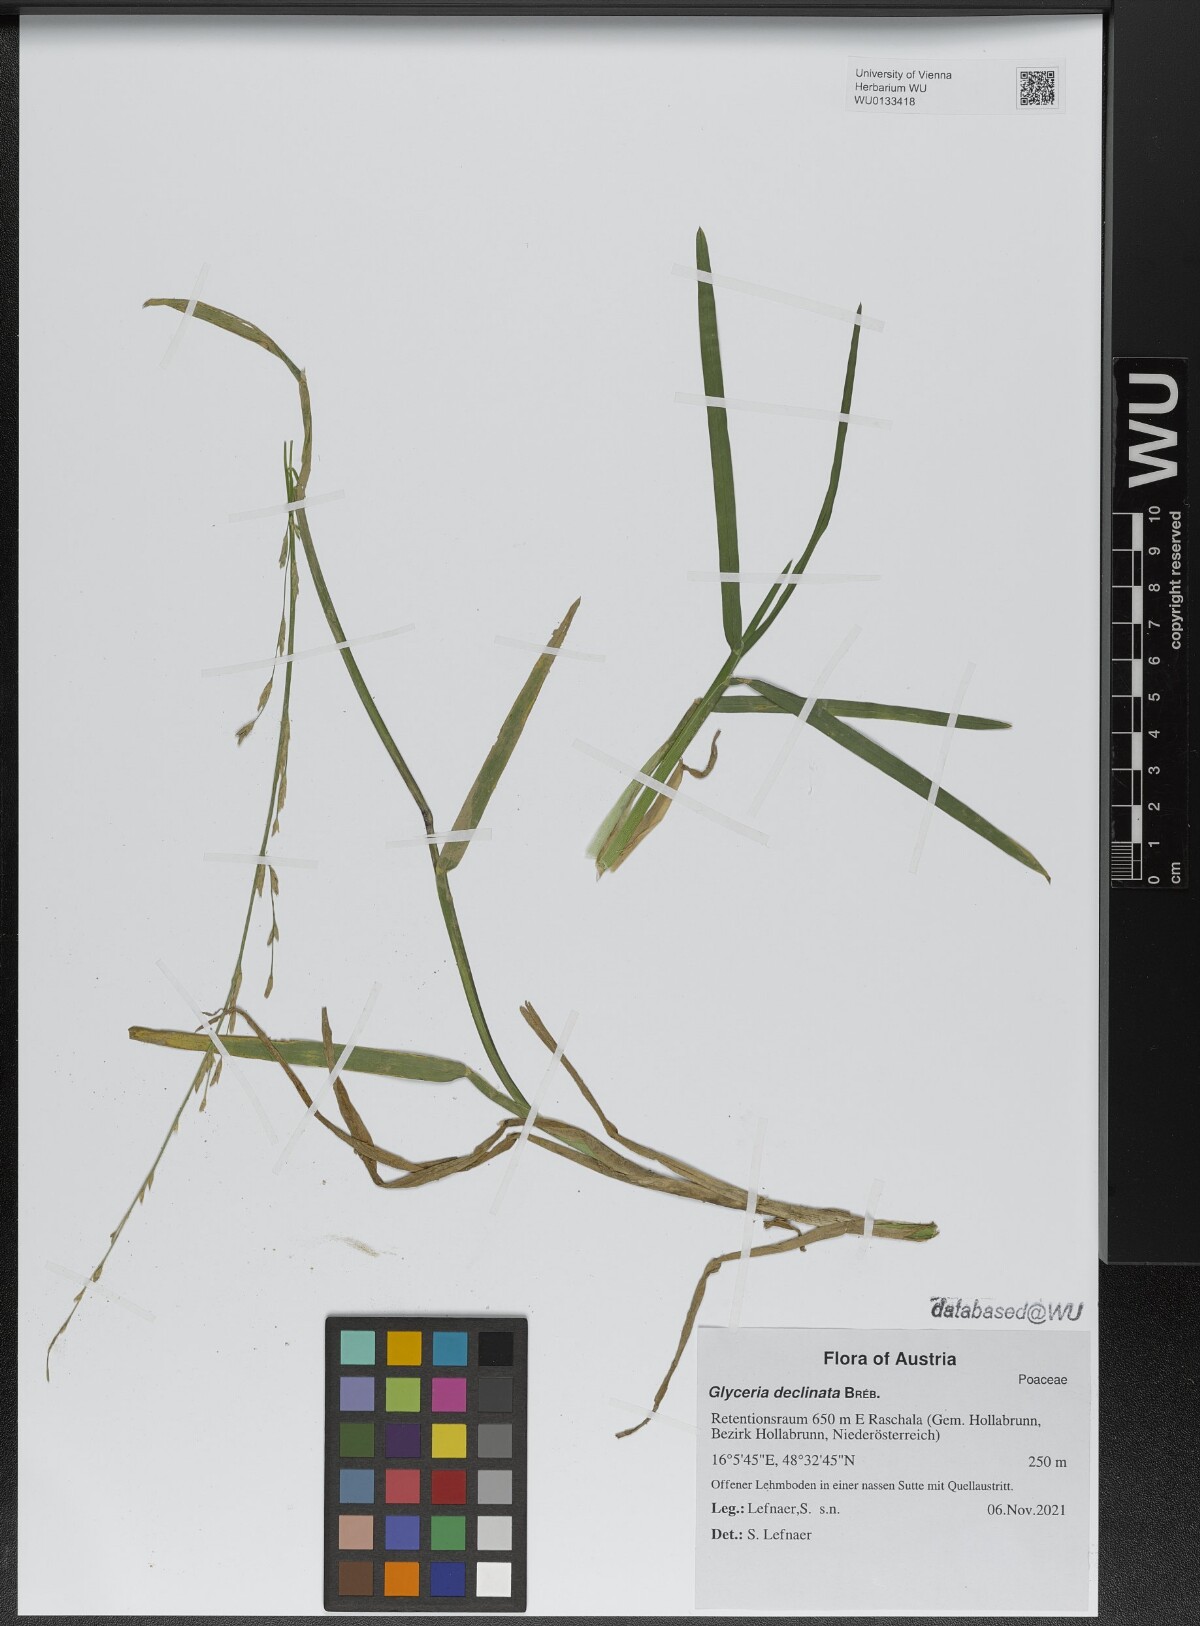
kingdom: Plantae
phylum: Tracheophyta
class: Liliopsida
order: Poales
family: Poaceae
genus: Glyceria
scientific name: Glyceria declinata
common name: Small sweet-grass
